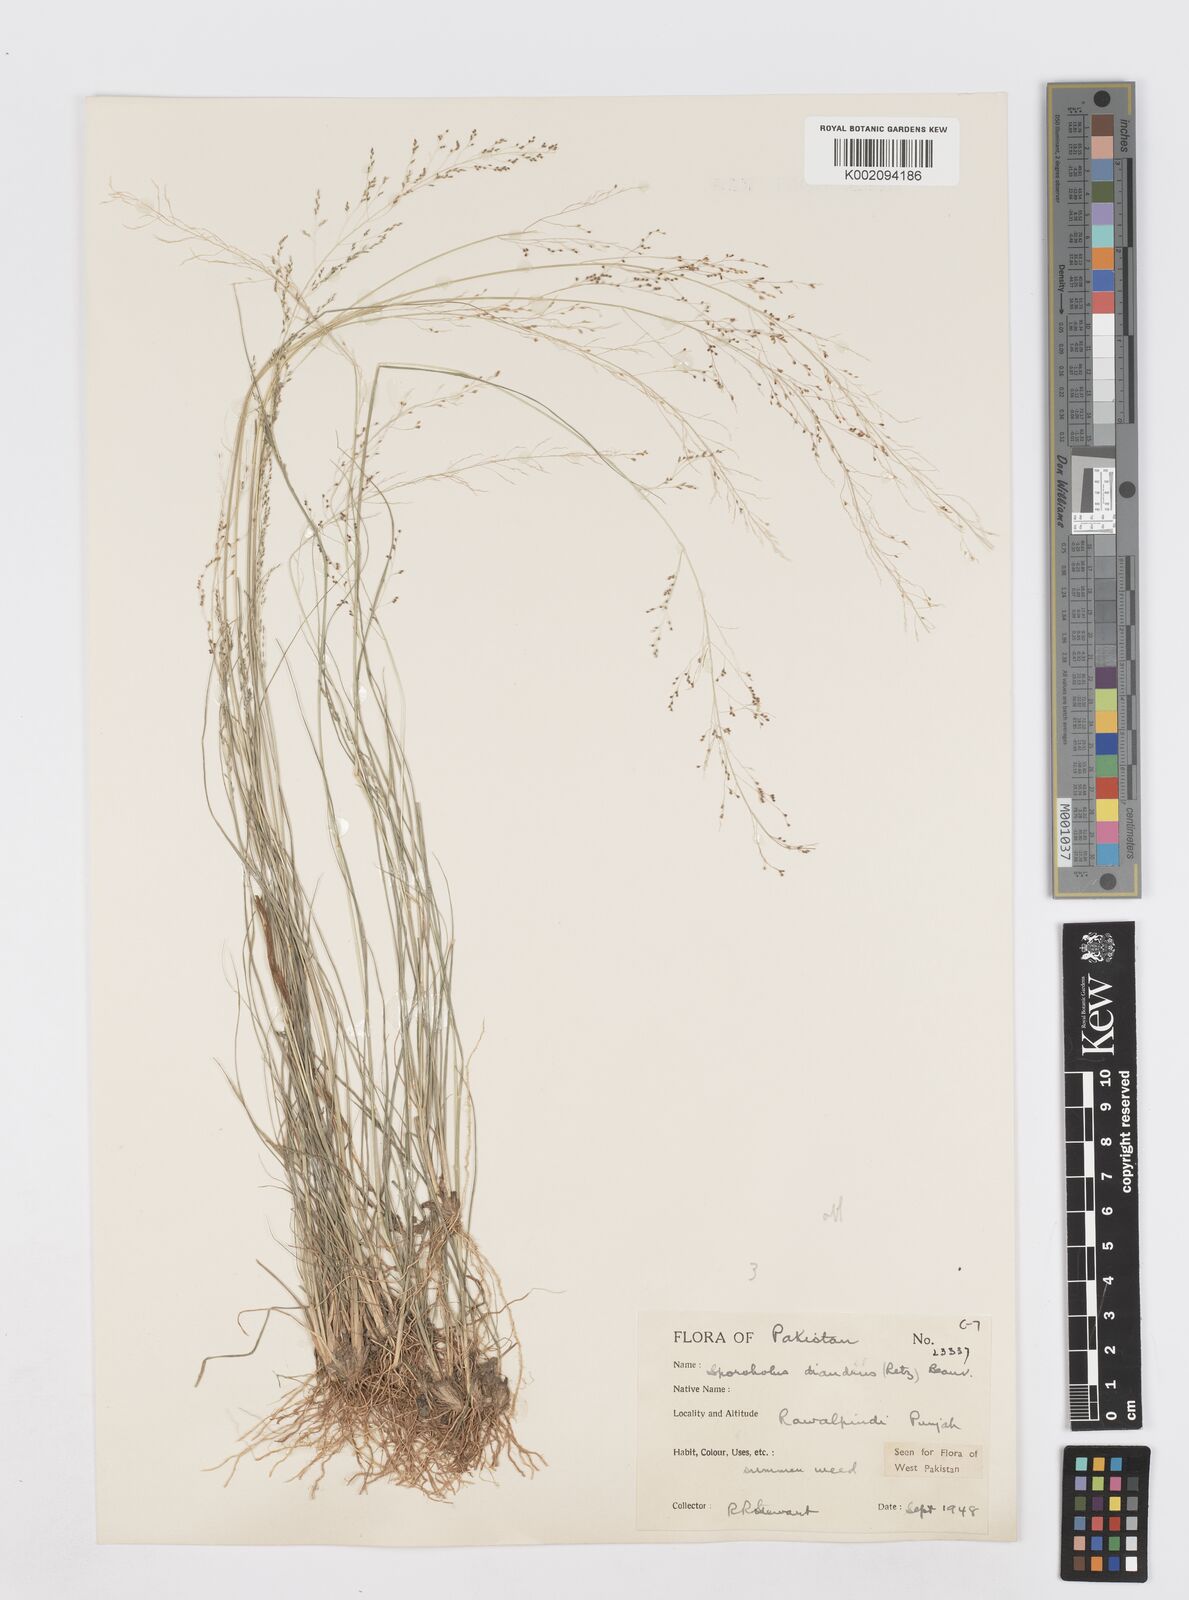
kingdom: Plantae
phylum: Tracheophyta
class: Liliopsida
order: Poales
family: Poaceae
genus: Sporobolus
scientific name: Sporobolus diandrus
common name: Tussock dropseed
